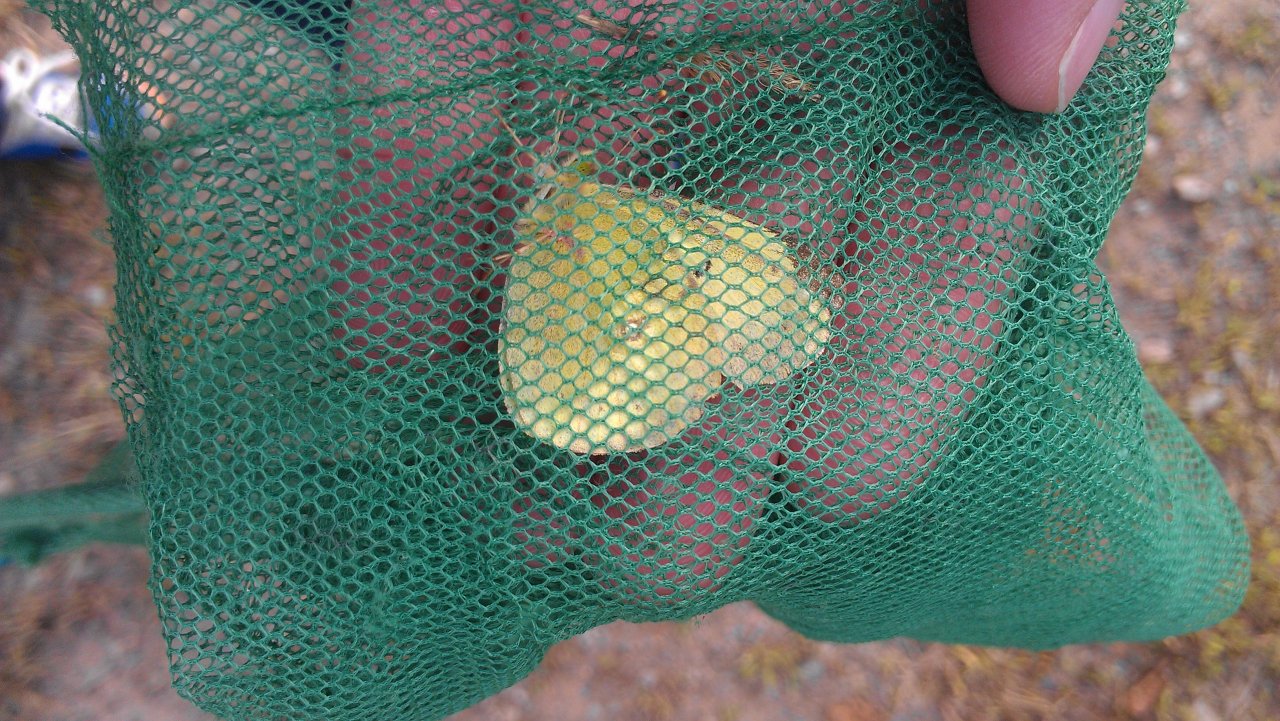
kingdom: Animalia
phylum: Arthropoda
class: Insecta
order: Lepidoptera
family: Pieridae
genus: Colias
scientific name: Colias philodice
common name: Clouded Sulphur
